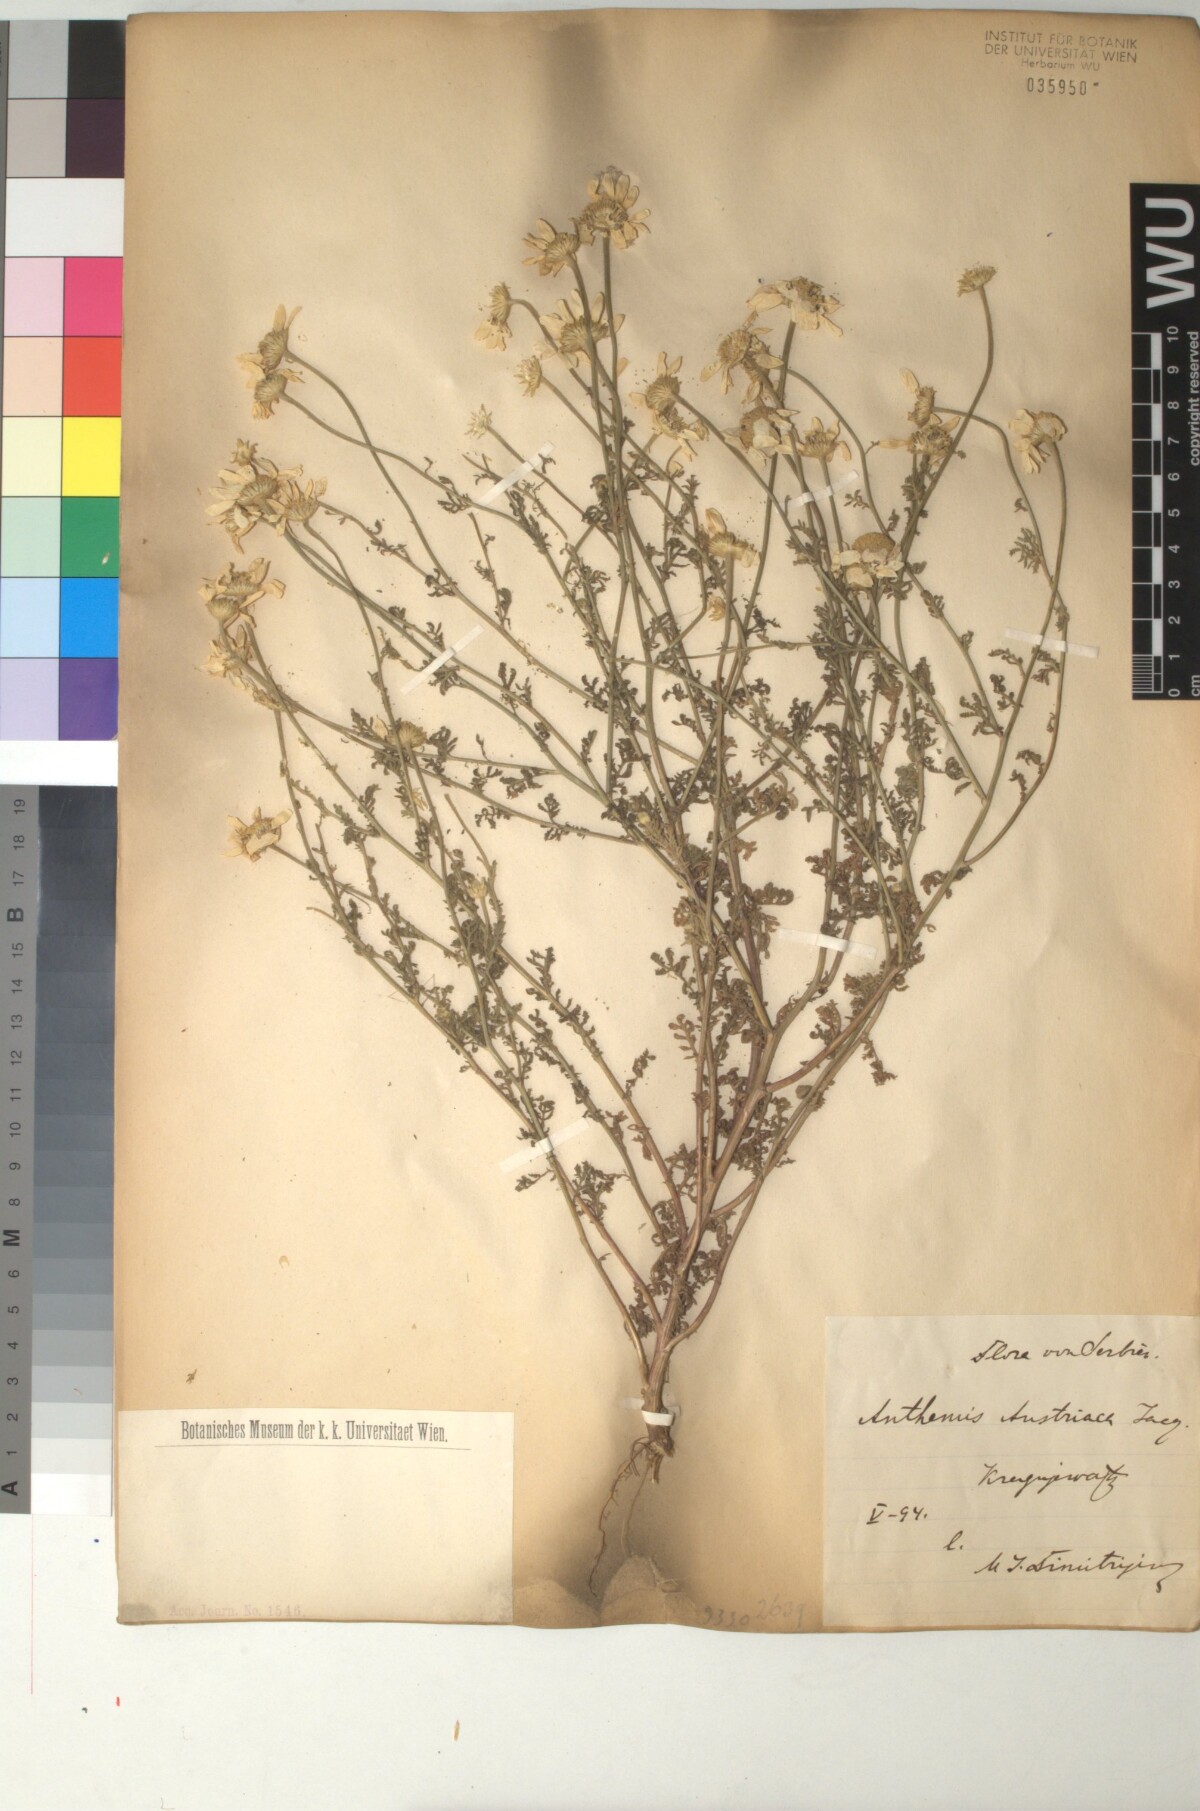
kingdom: Plantae
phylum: Tracheophyta
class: Magnoliopsida
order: Asterales
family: Asteraceae
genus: Cota
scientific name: Cota austriaca
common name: Austrian chamomile
